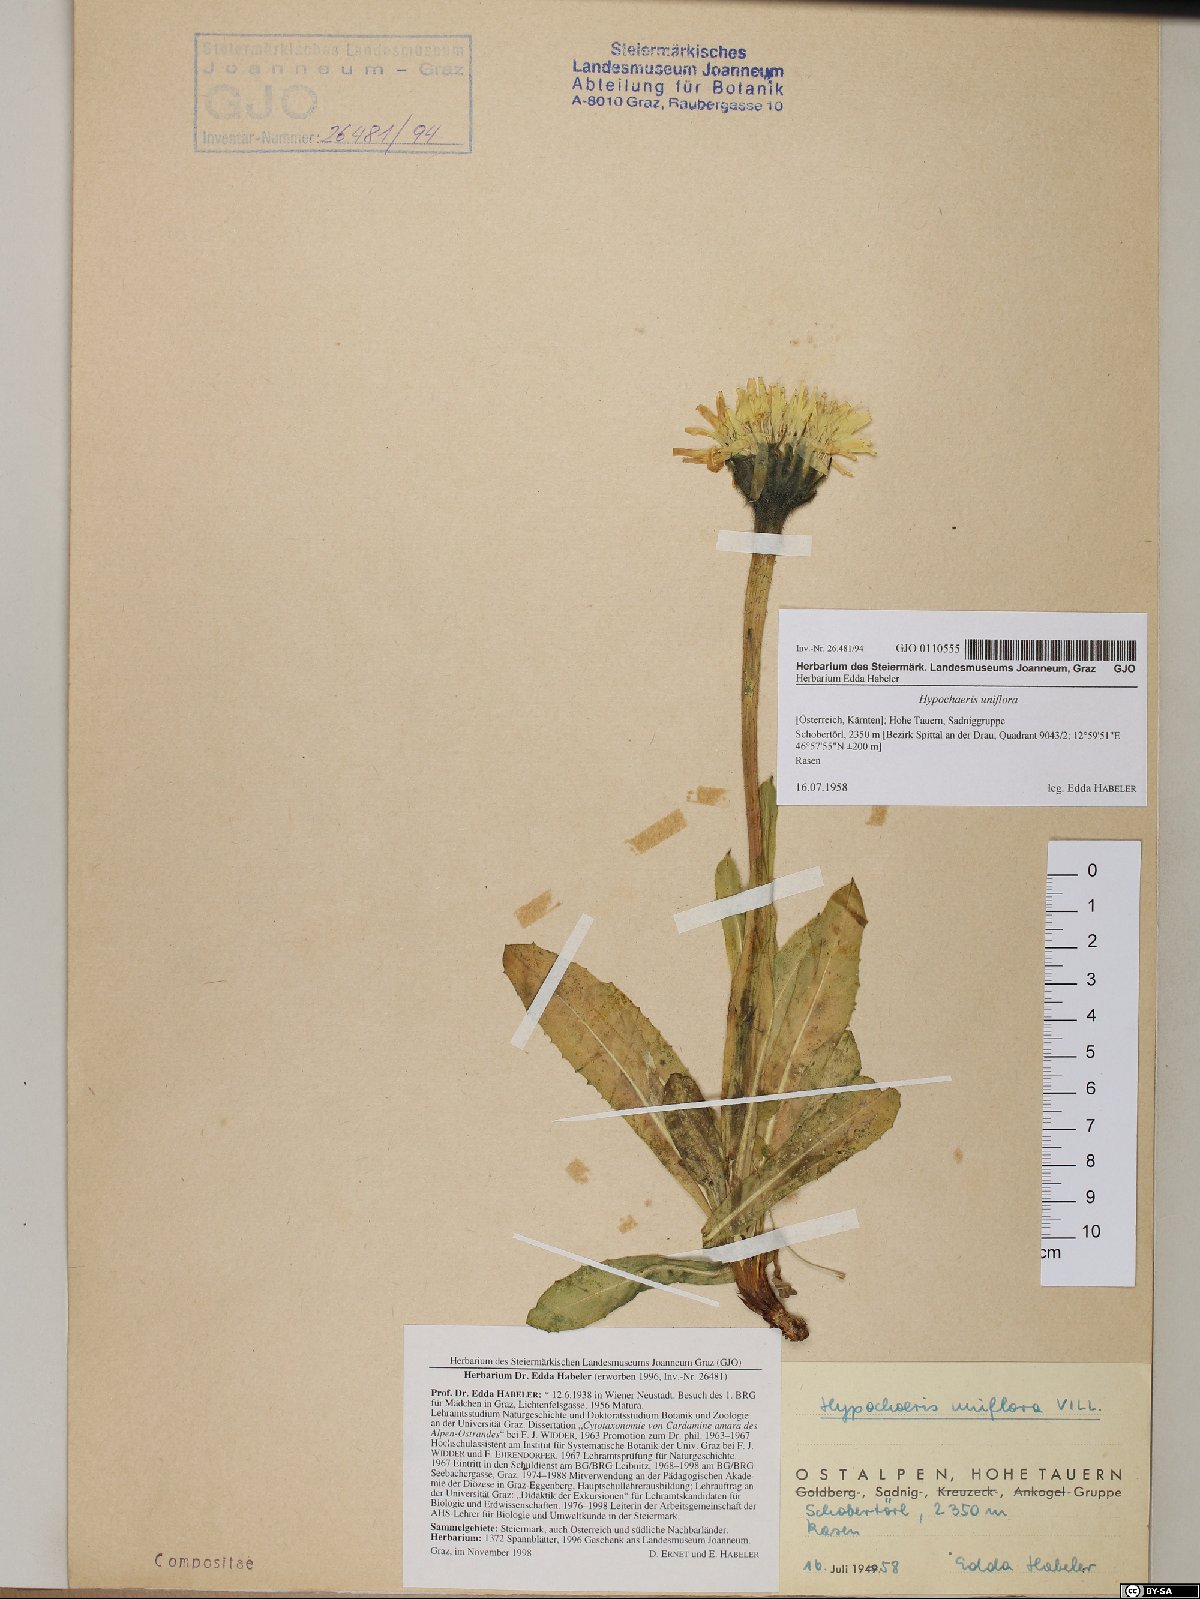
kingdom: Plantae
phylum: Tracheophyta
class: Magnoliopsida
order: Asterales
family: Asteraceae
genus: Trommsdorffia
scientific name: Trommsdorffia uniflora
